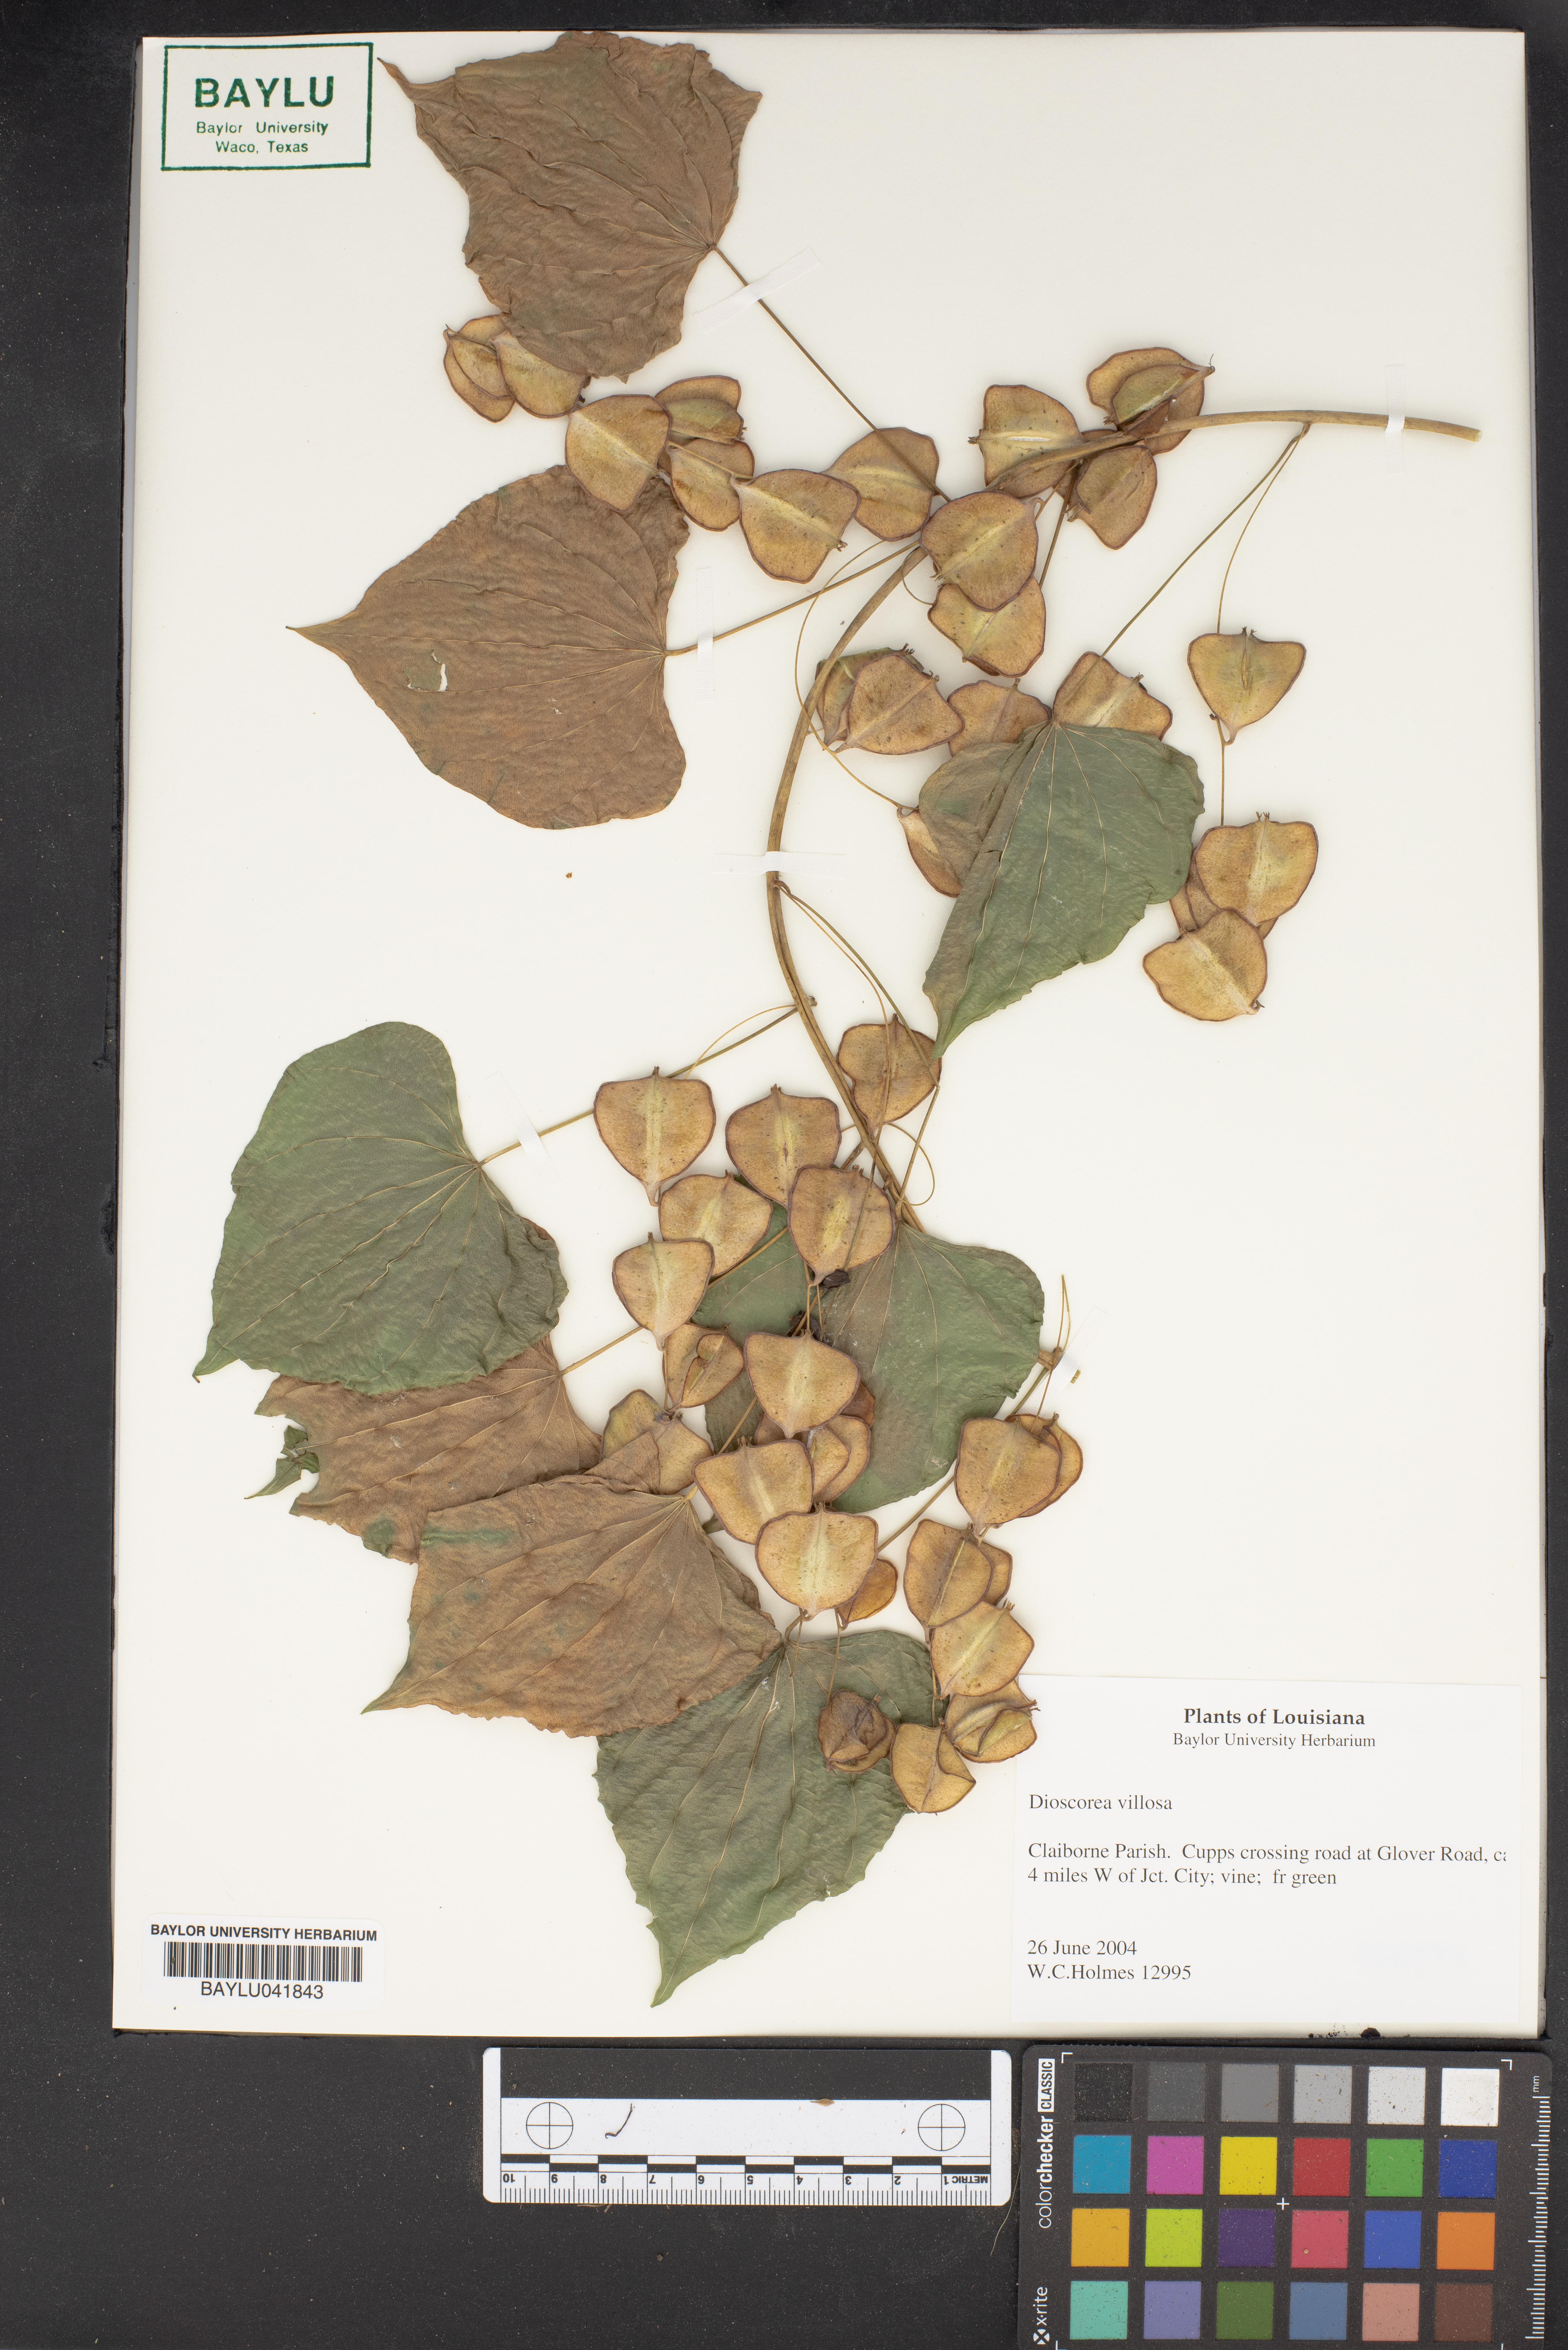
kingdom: Plantae
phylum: Tracheophyta
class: Liliopsida
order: Dioscoreales
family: Dioscoreaceae
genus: Dioscorea
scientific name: Dioscorea villosa
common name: Wild yam
